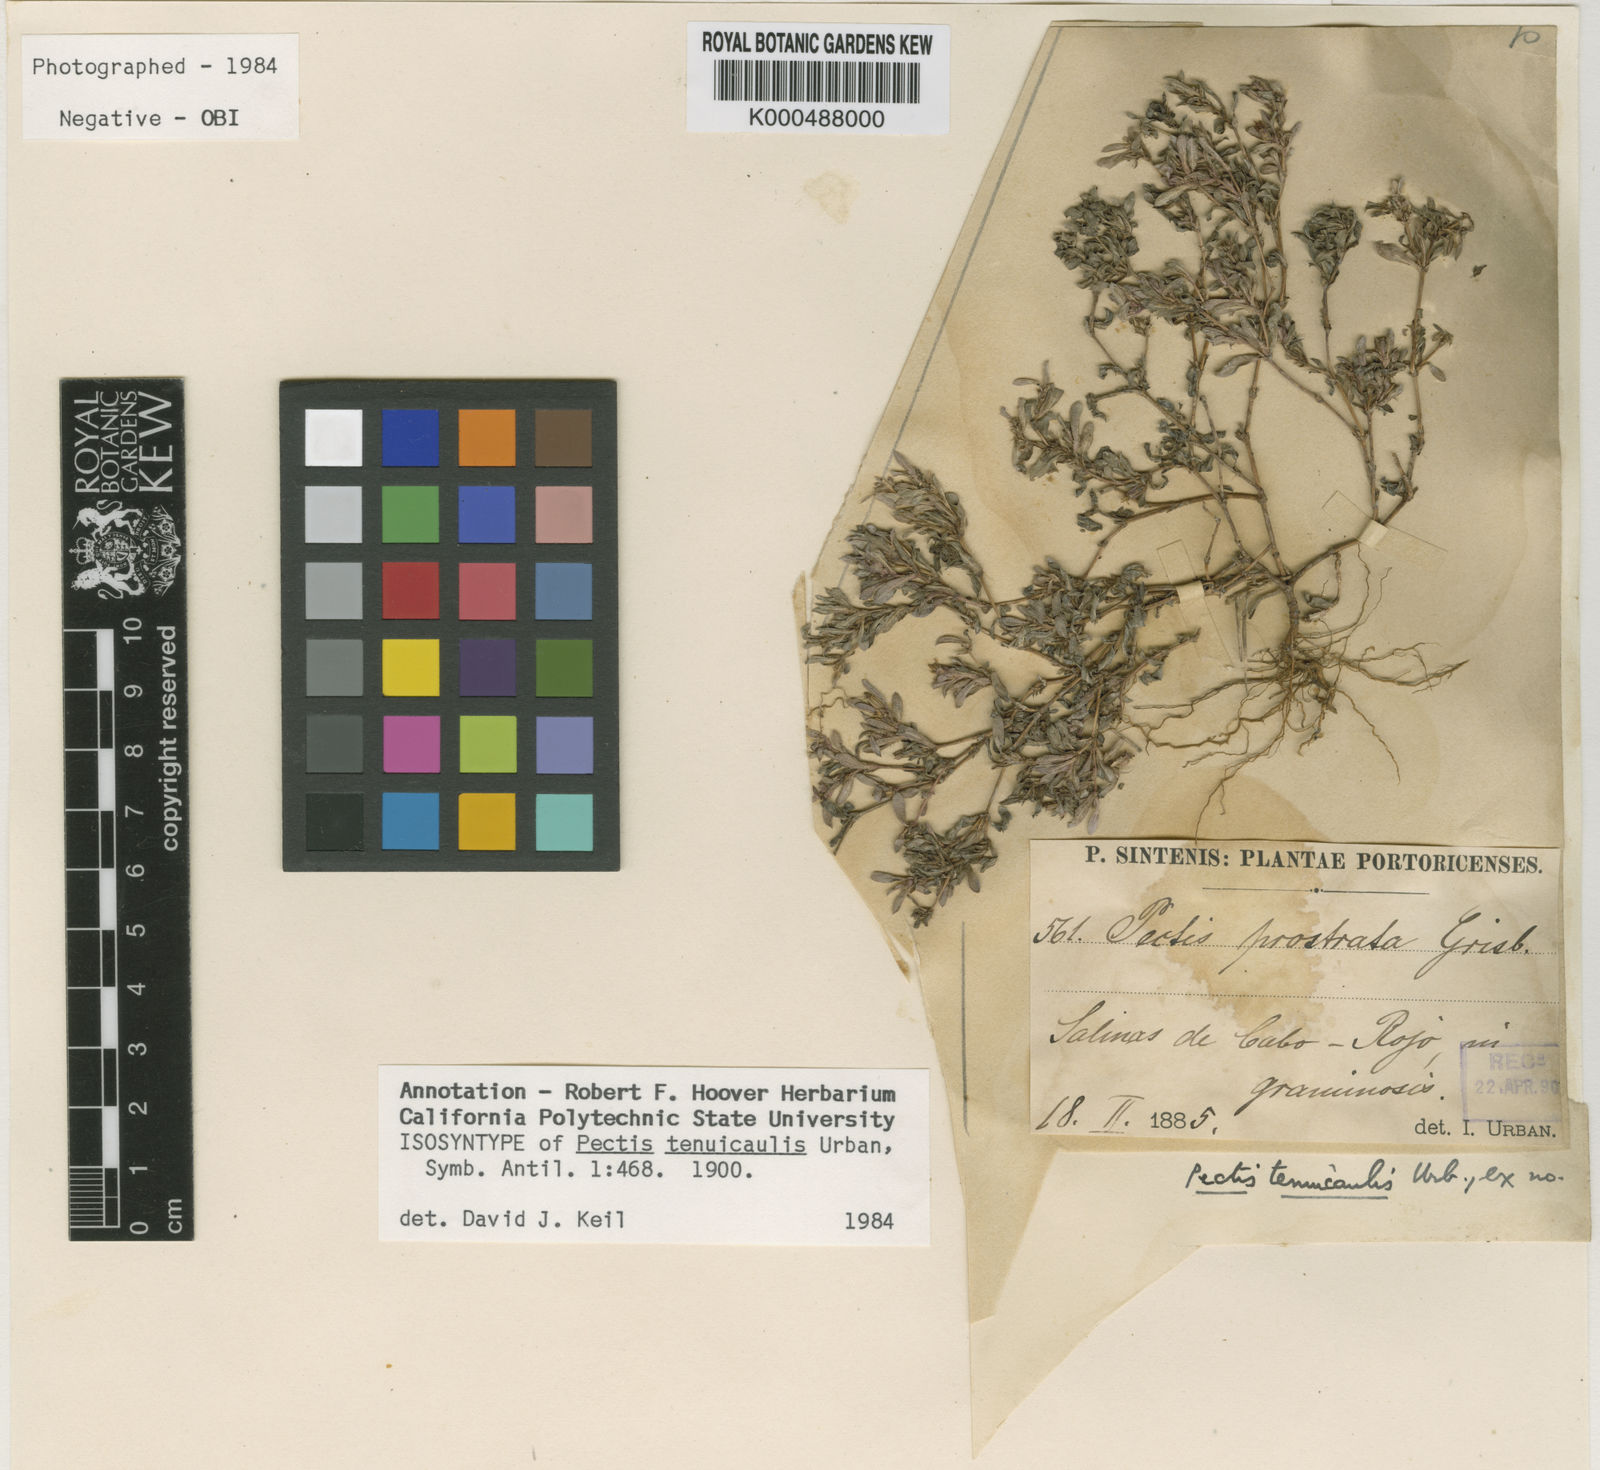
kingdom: Plantae
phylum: Tracheophyta
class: Magnoliopsida
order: Asterales
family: Asteraceae
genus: Pectis
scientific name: Pectis tenuicaulis
